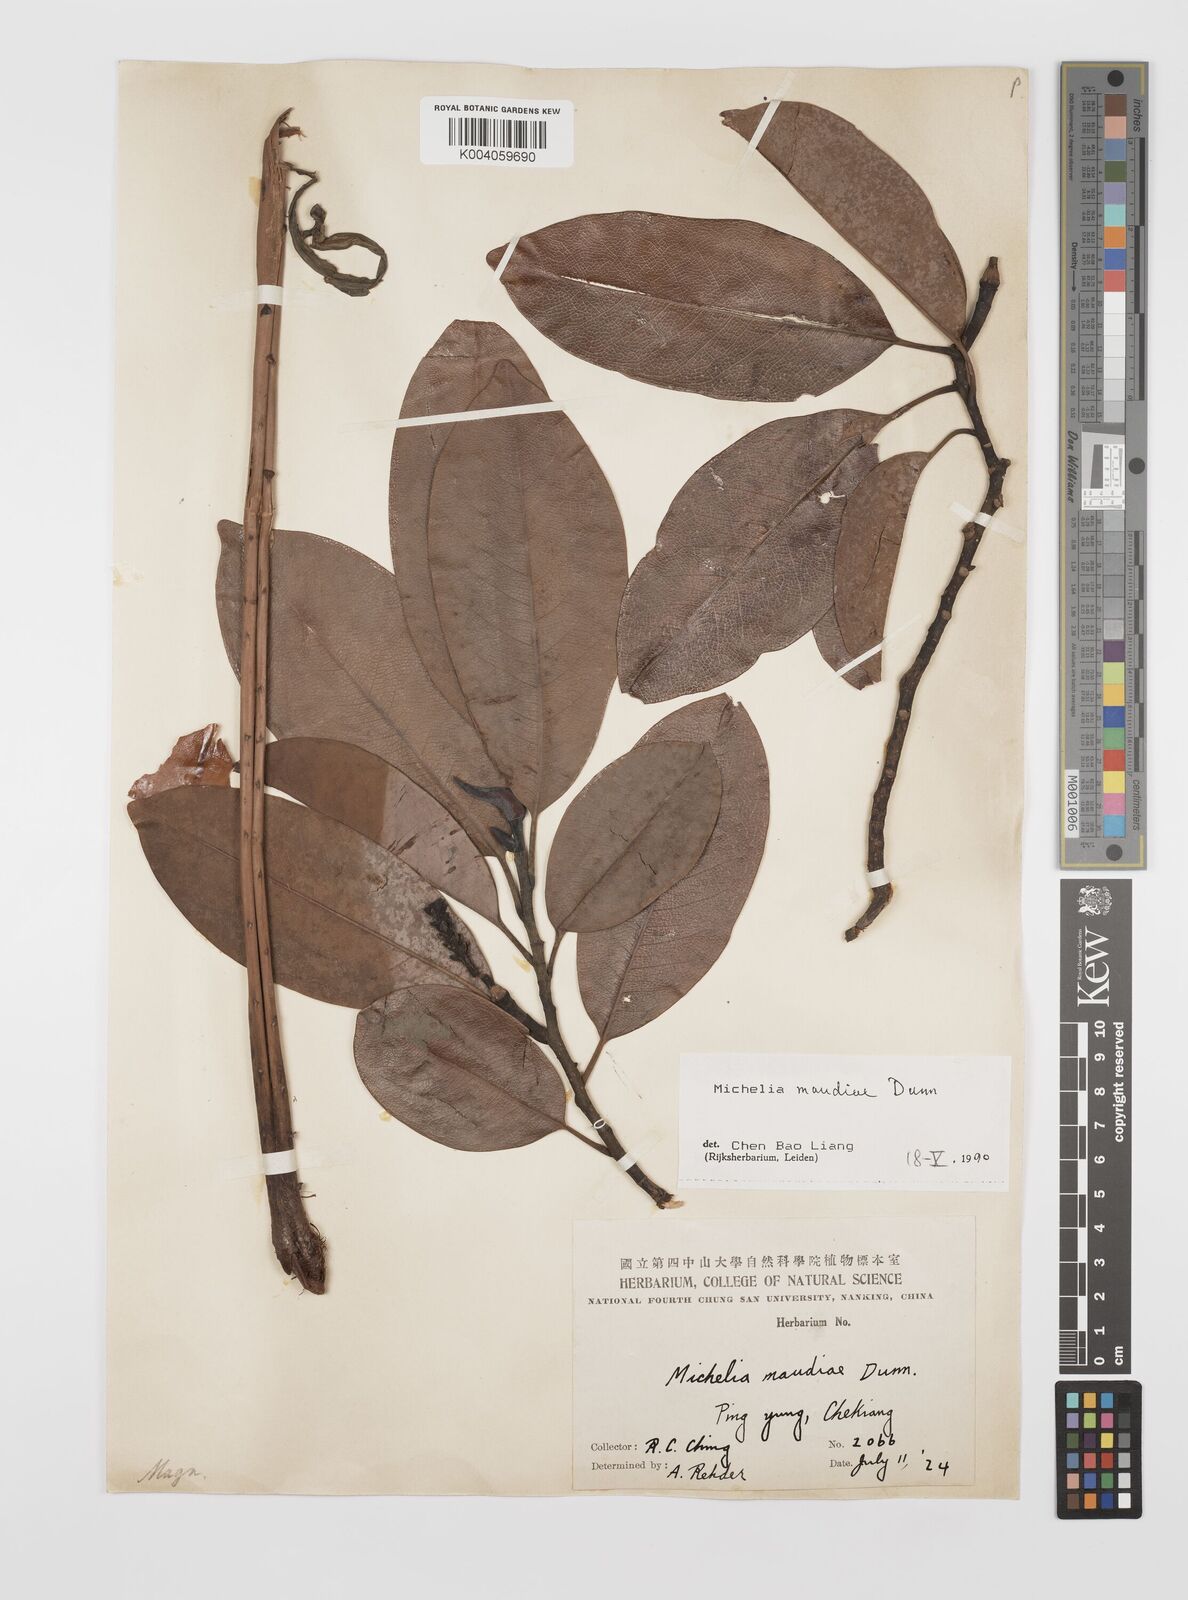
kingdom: Plantae
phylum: Tracheophyta
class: Magnoliopsida
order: Magnoliales
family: Magnoliaceae
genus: Magnolia
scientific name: Magnolia maudiae
